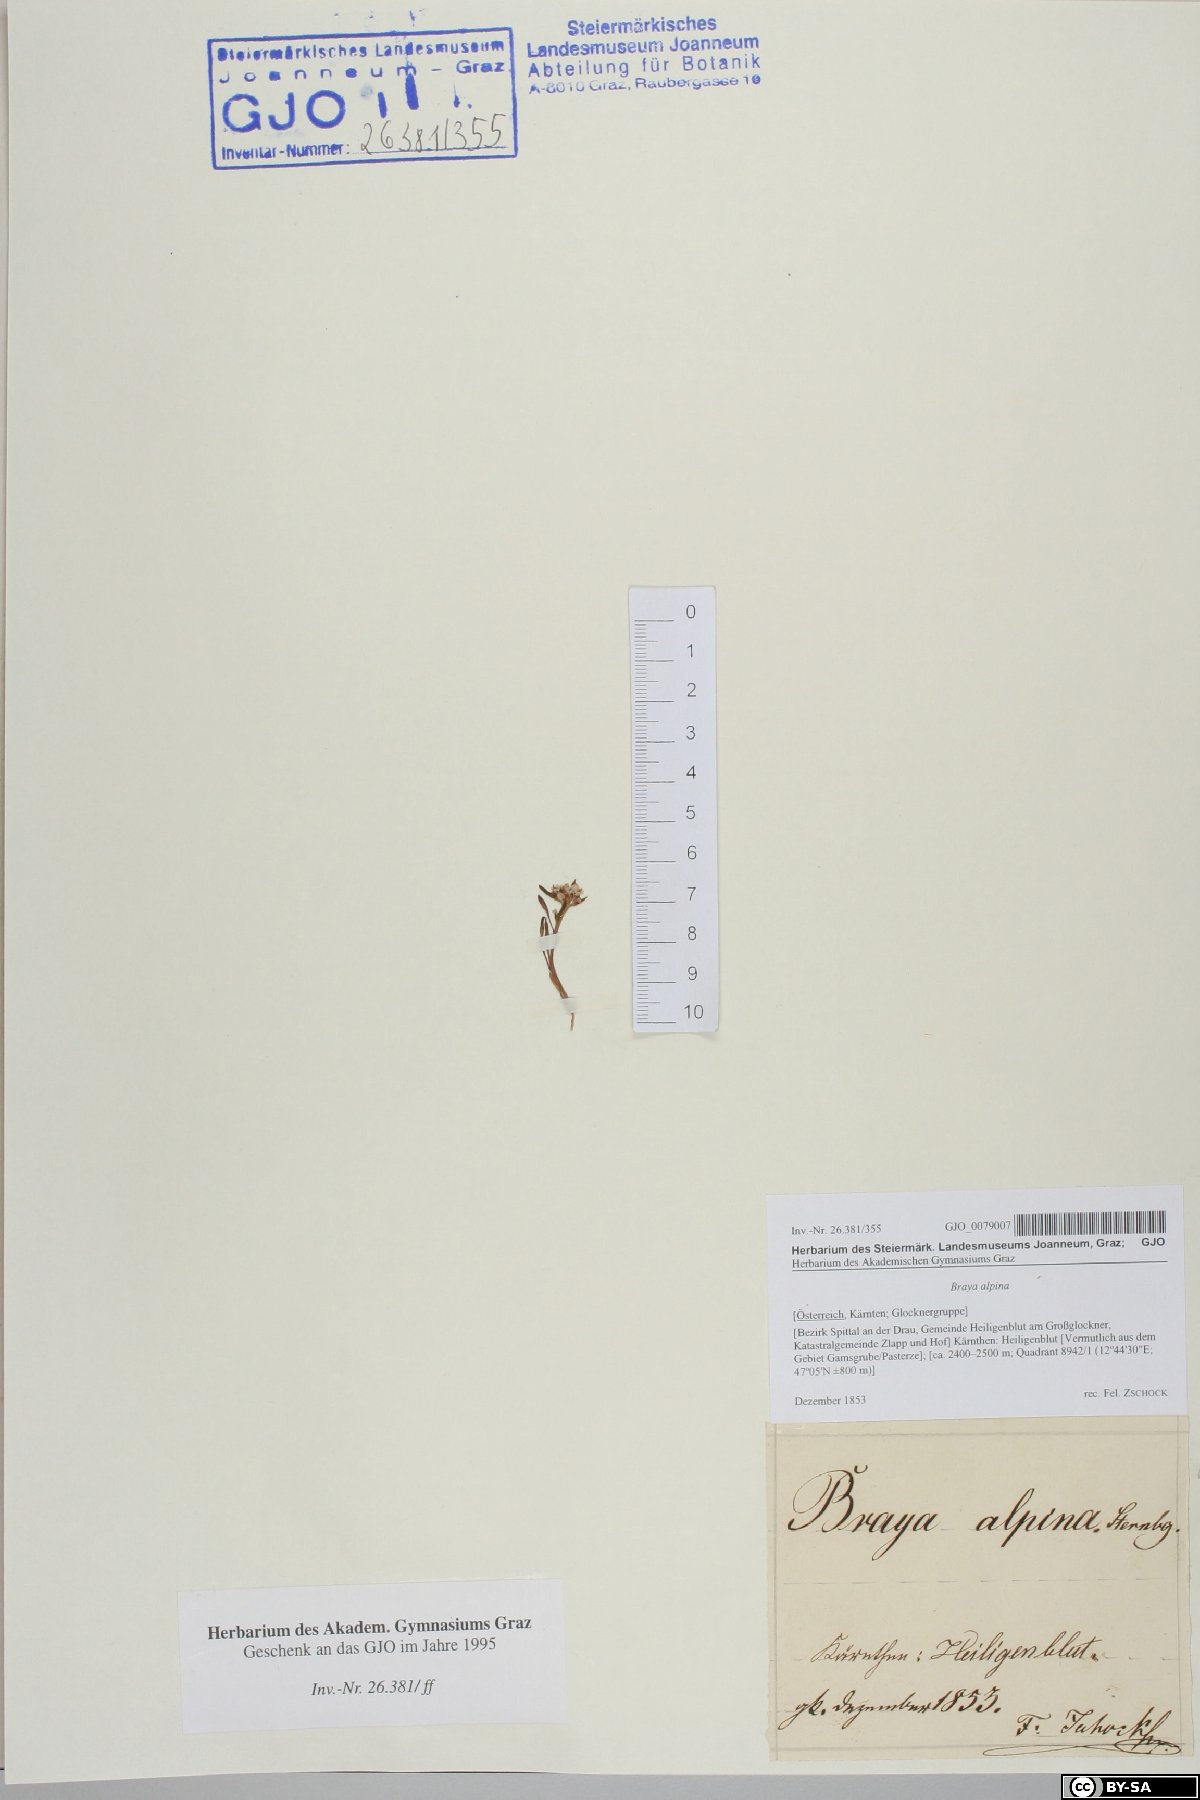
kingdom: Plantae
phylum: Tracheophyta
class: Magnoliopsida
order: Brassicales
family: Brassicaceae
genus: Braya
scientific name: Braya alpina
